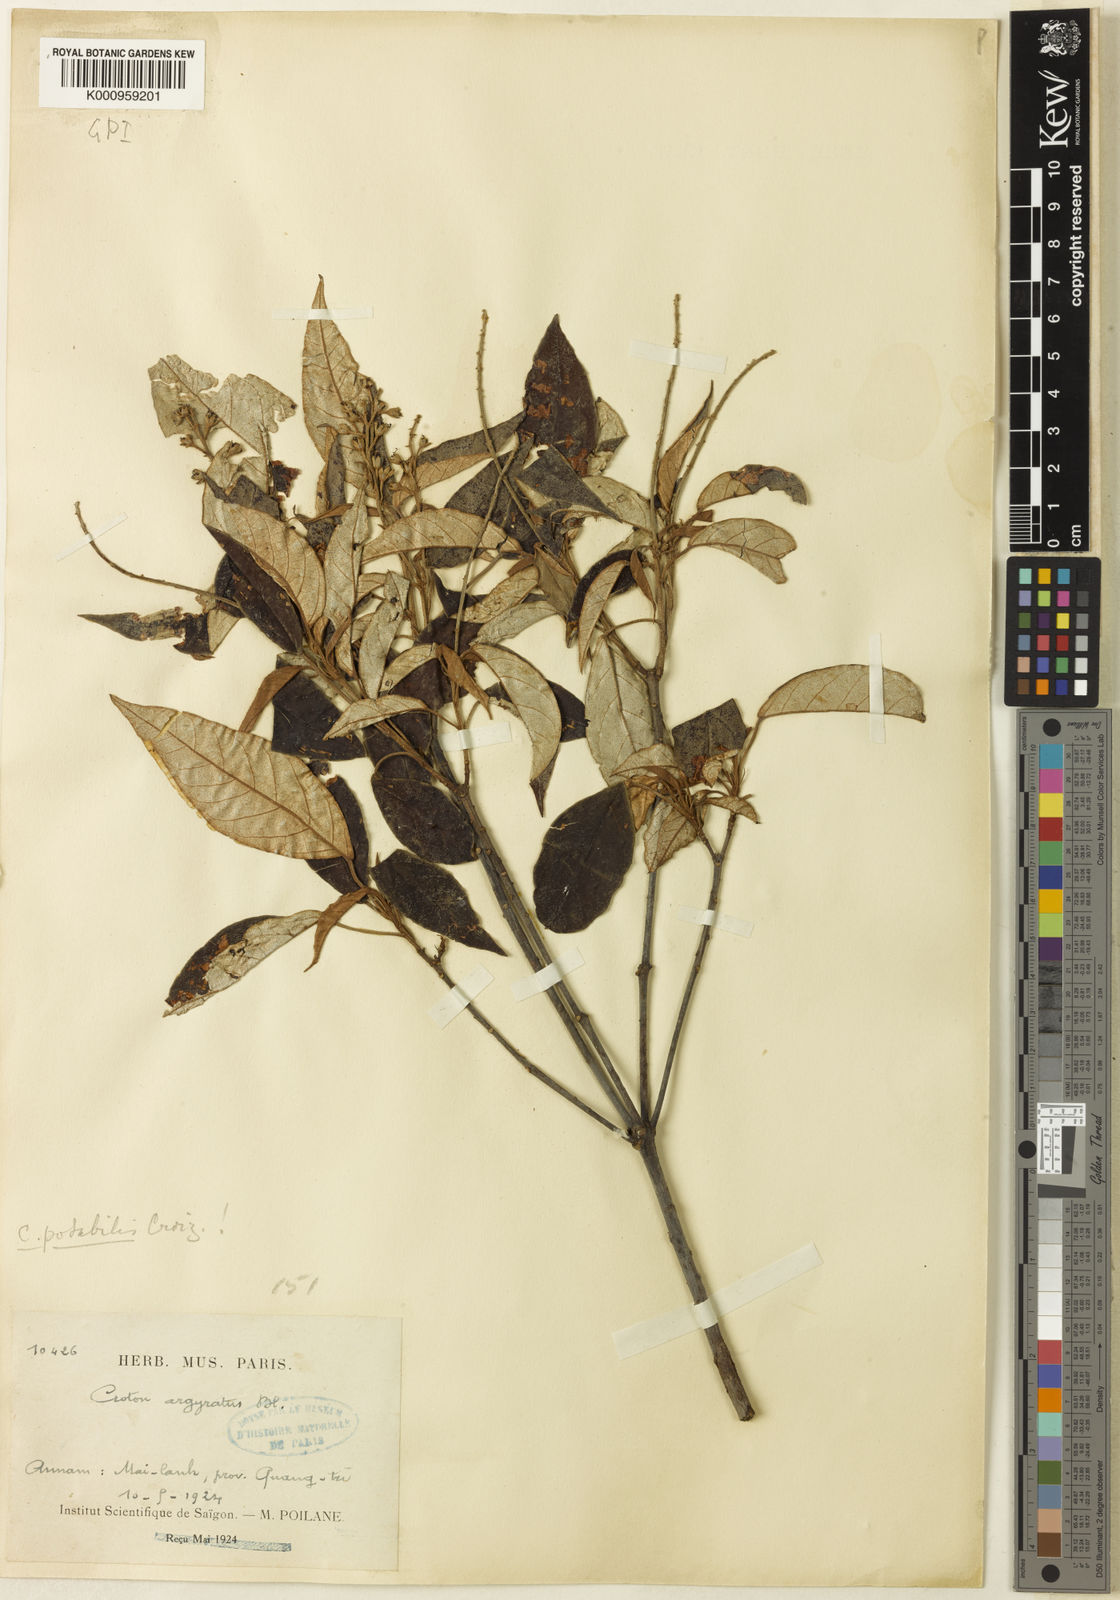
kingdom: Plantae
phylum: Tracheophyta
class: Magnoliopsida
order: Malpighiales
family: Euphorbiaceae
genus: Croton
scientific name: Croton potabilis
